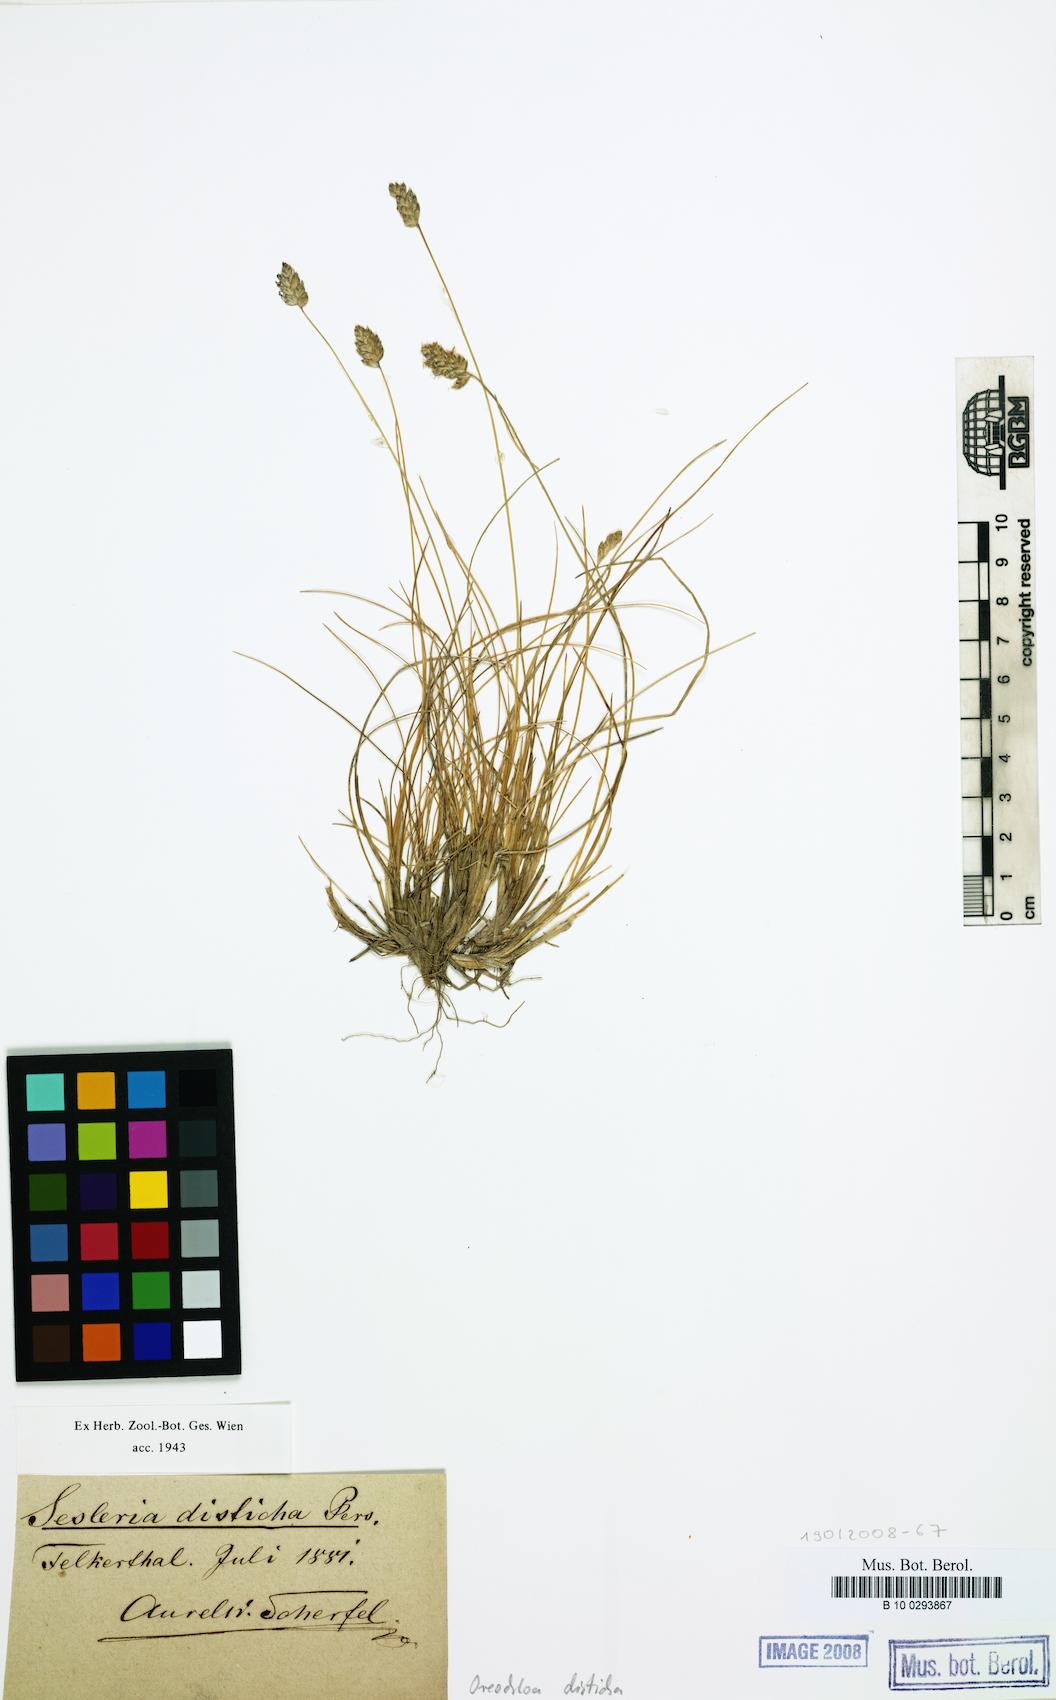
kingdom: Plantae
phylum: Tracheophyta
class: Liliopsida
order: Poales
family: Poaceae
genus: Oreochloa
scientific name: Oreochloa disticha
